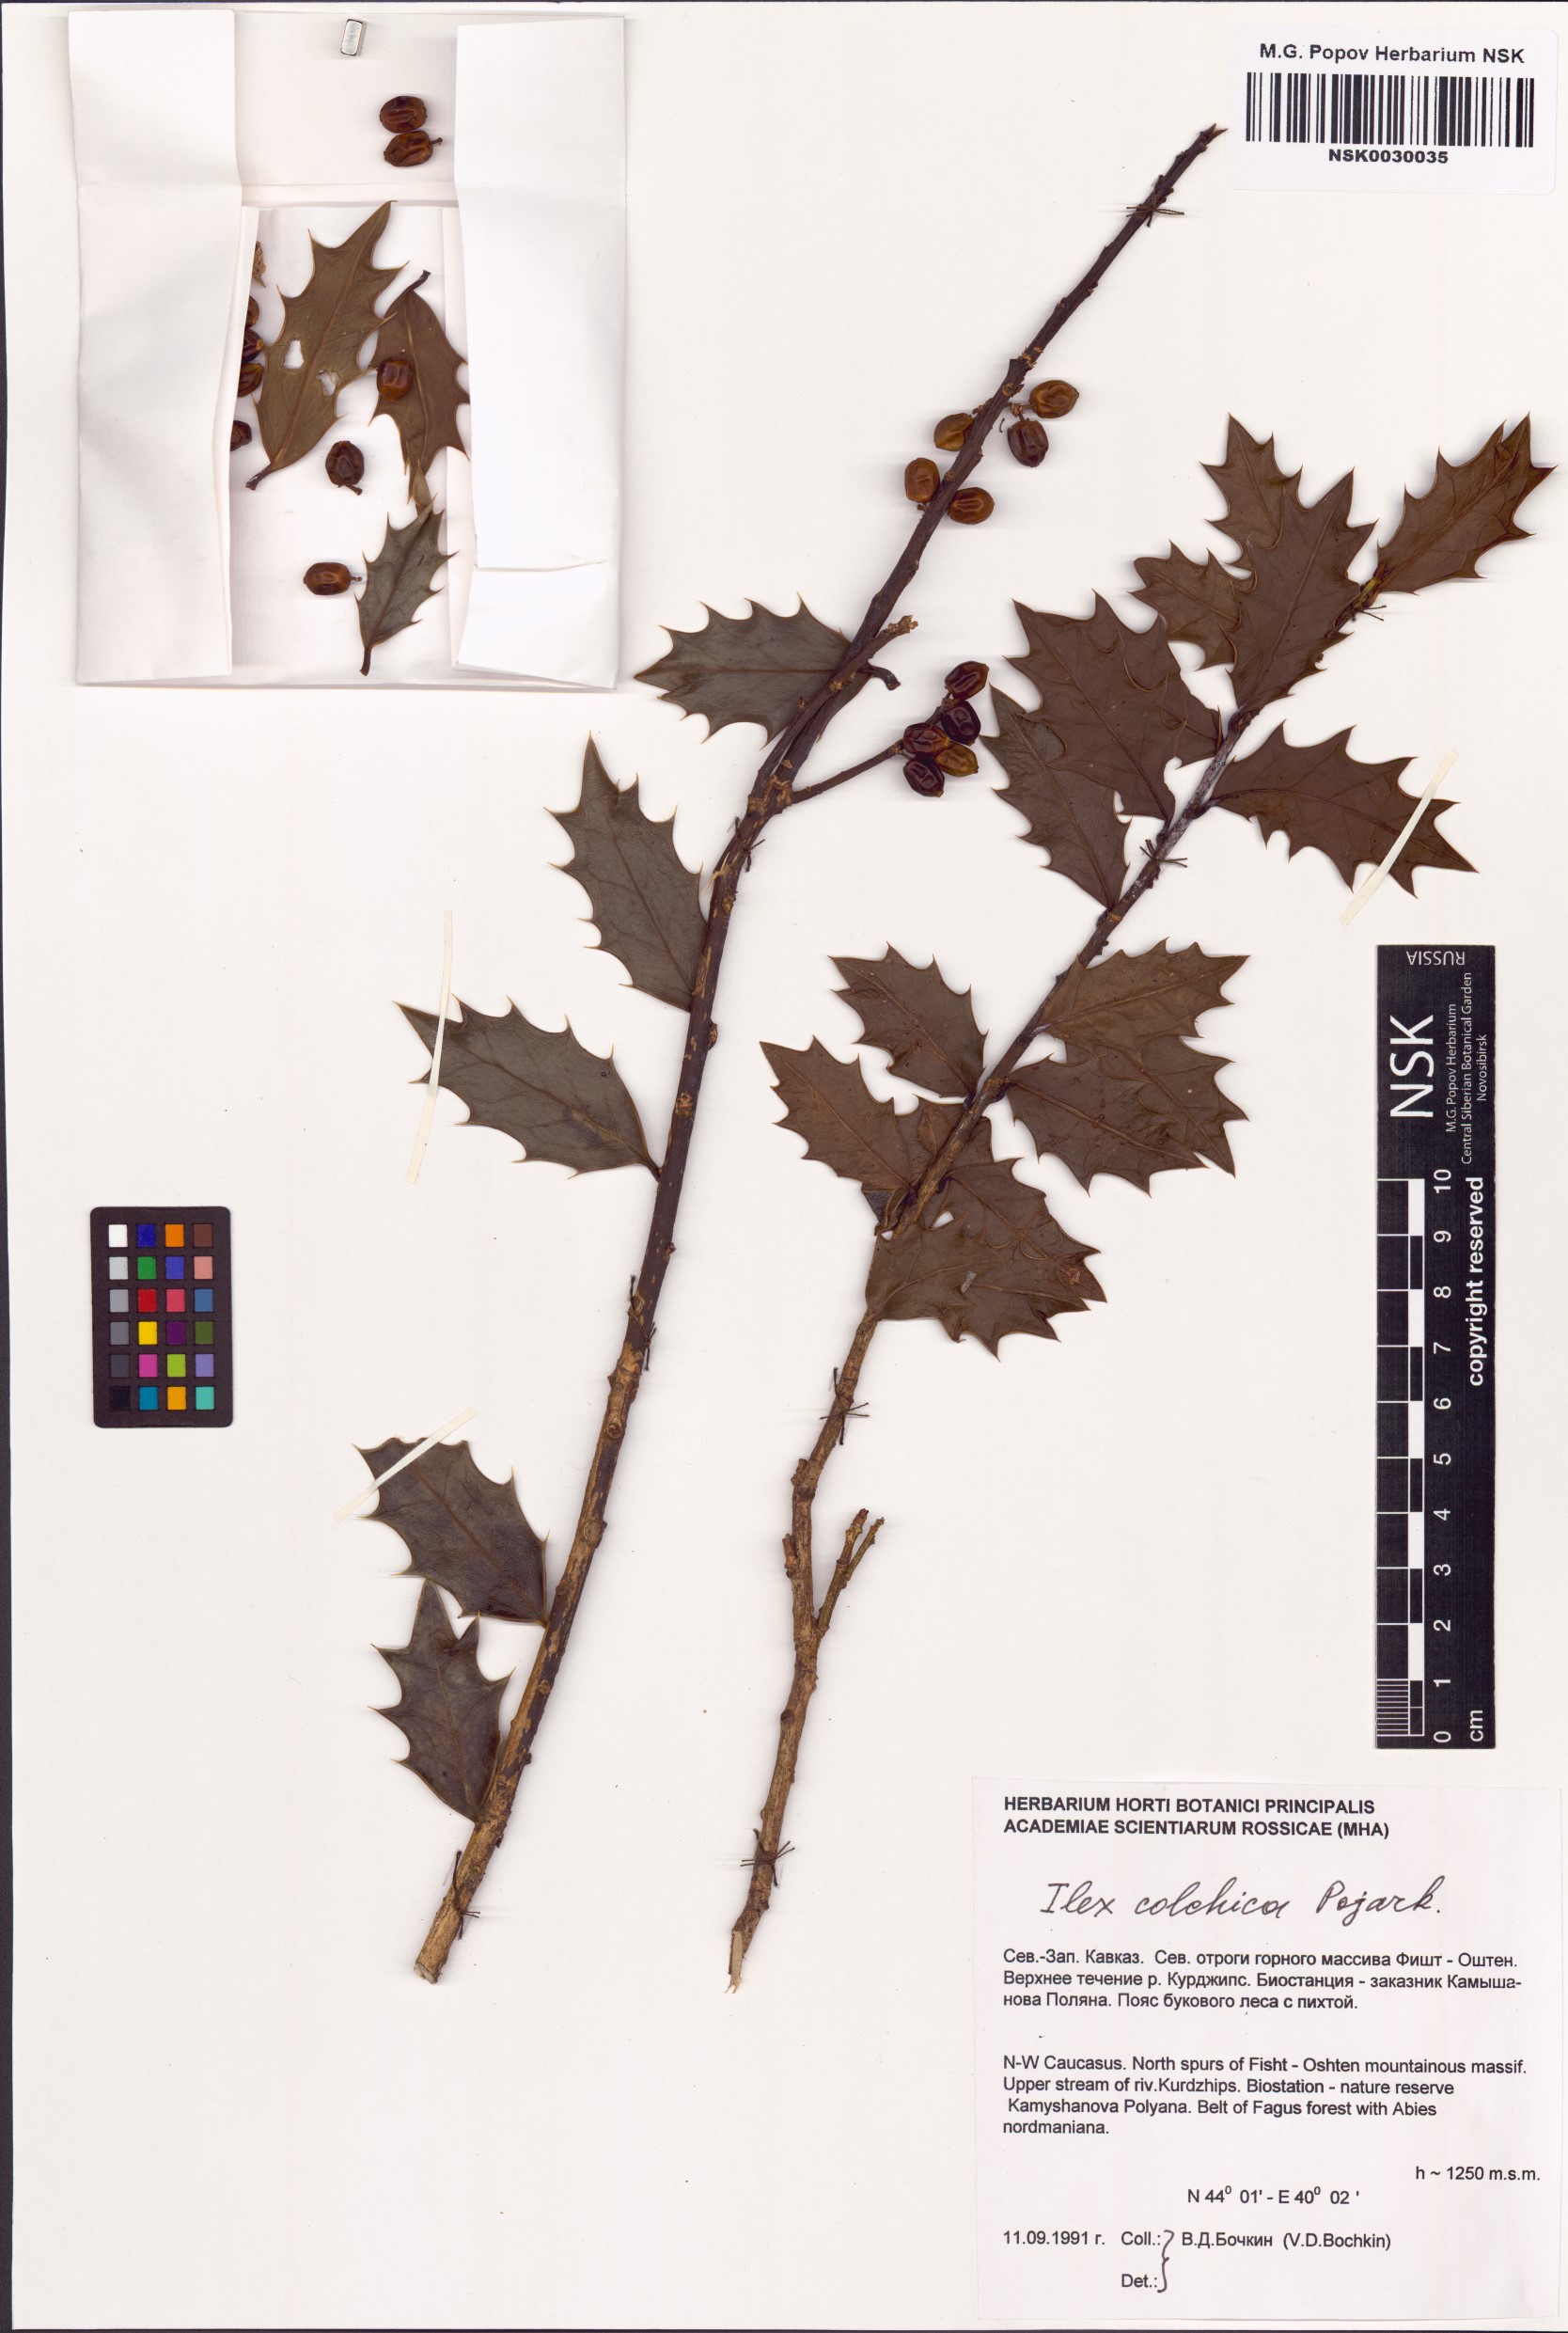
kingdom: Plantae
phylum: Tracheophyta
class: Magnoliopsida
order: Aquifoliales
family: Aquifoliaceae
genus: Ilex
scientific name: Ilex colchica
